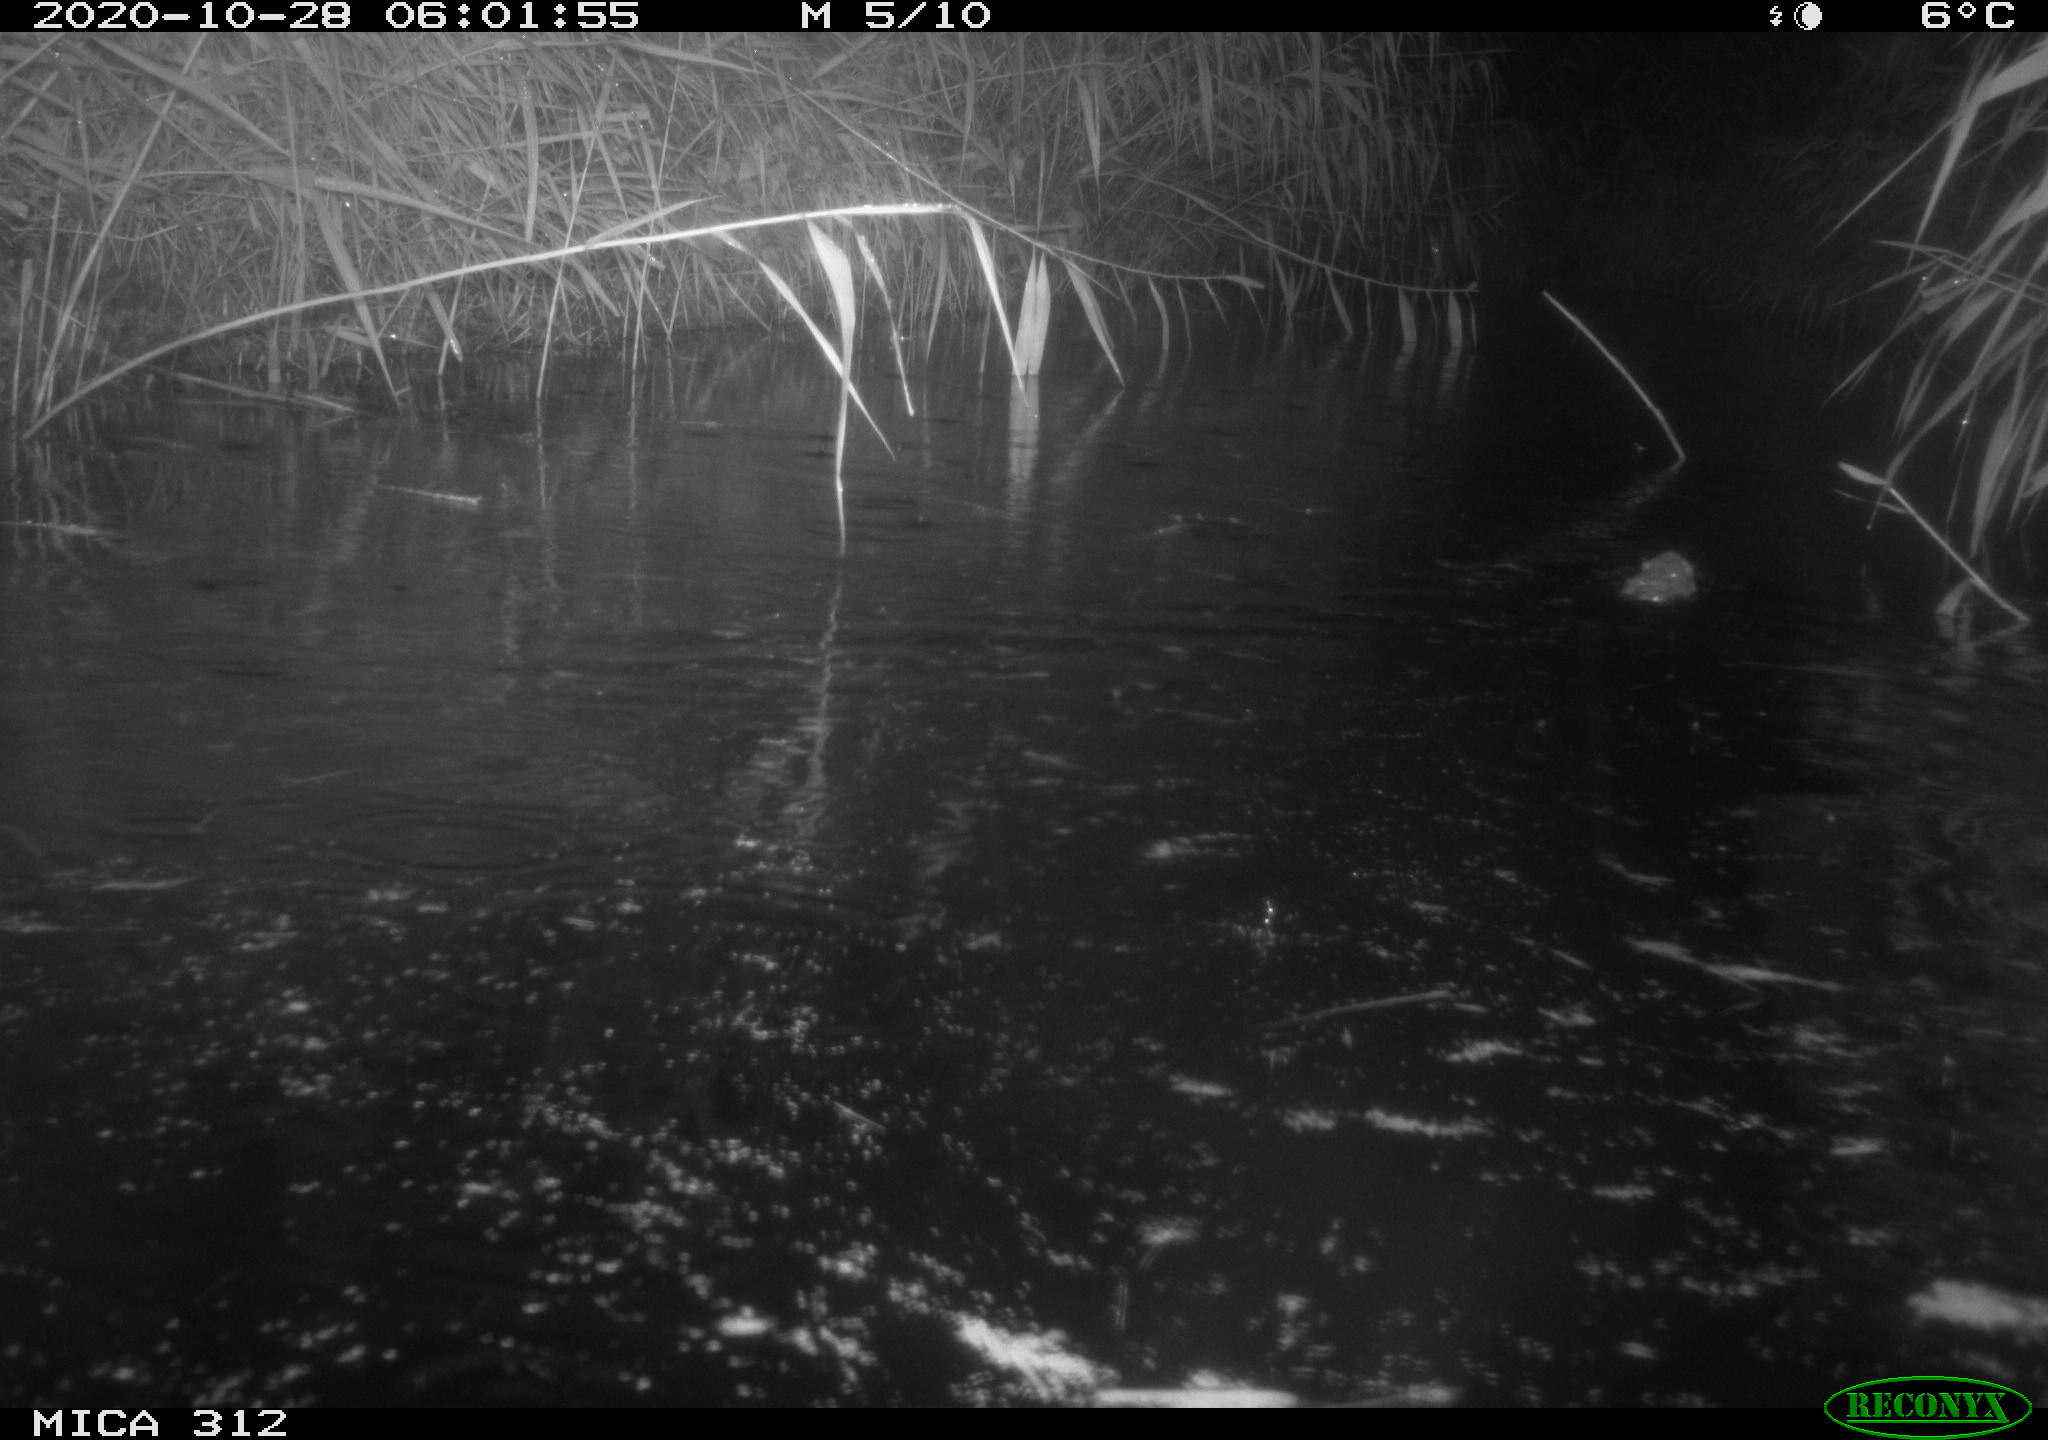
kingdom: Animalia
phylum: Chordata
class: Mammalia
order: Rodentia
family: Muridae
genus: Rattus
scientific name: Rattus norvegicus
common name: Brown rat
